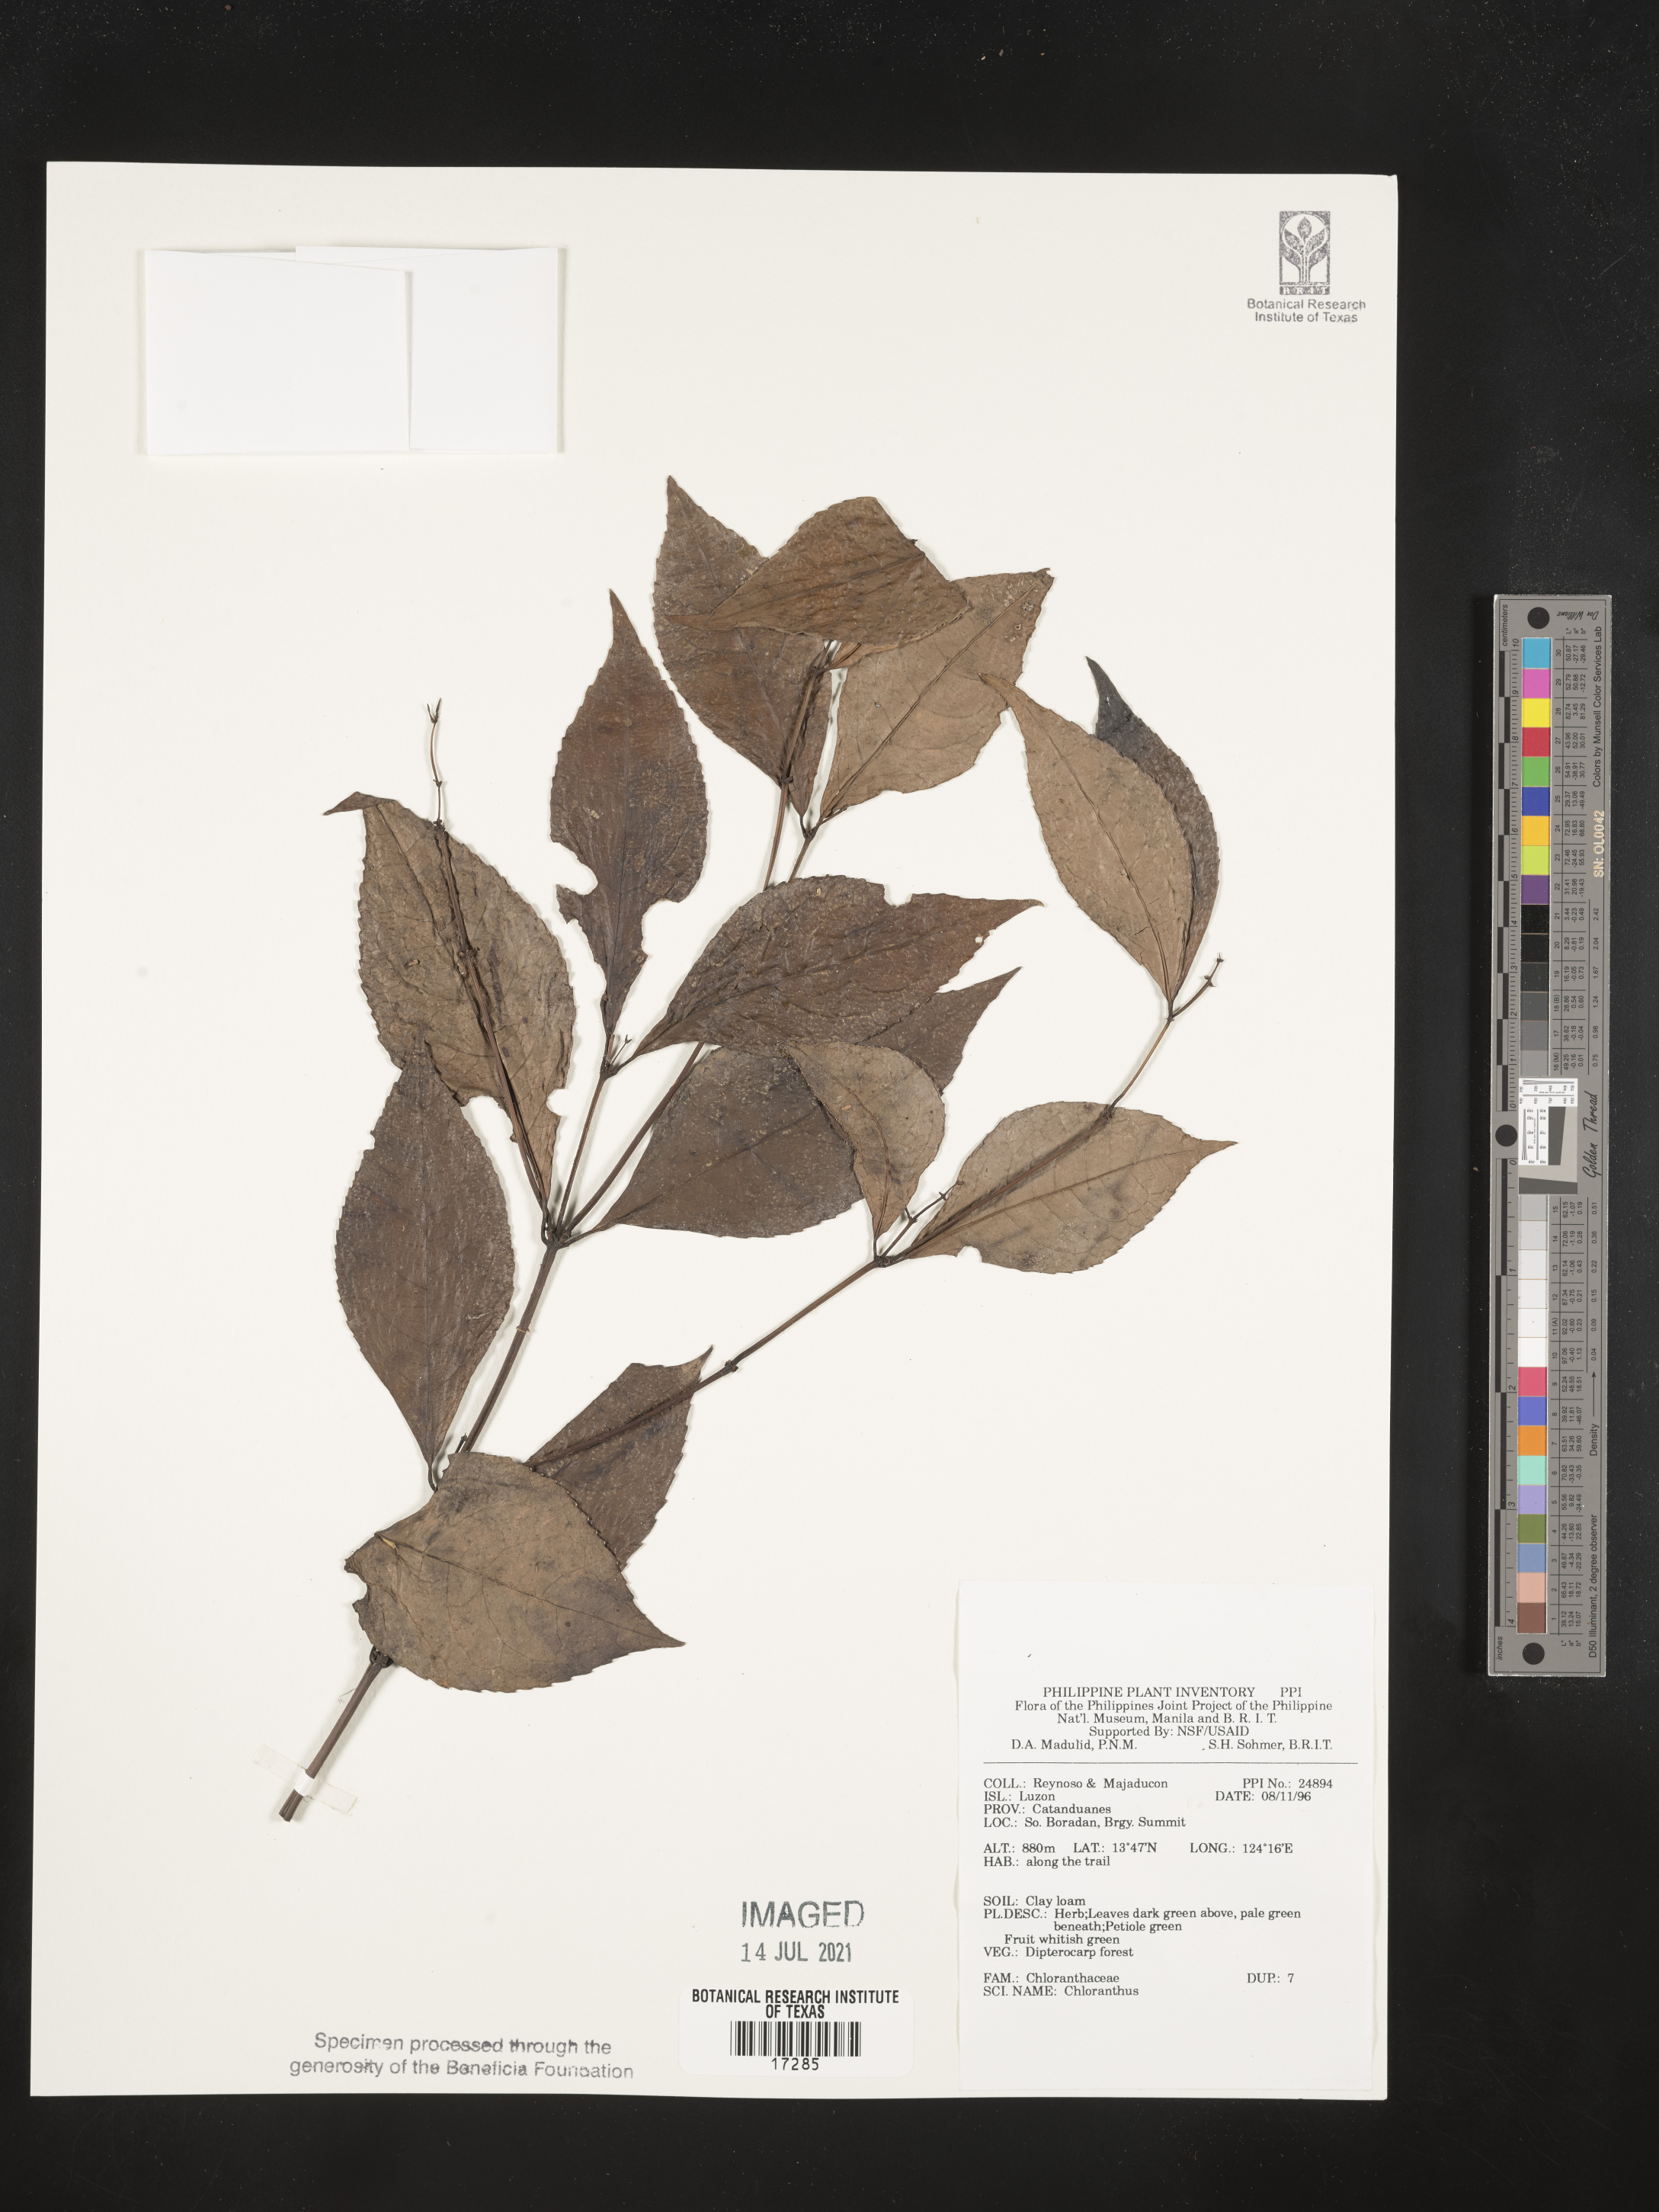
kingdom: Plantae
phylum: Tracheophyta
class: Magnoliopsida
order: Chloranthales
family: Chloranthaceae
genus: Chloranthus
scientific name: Chloranthus
